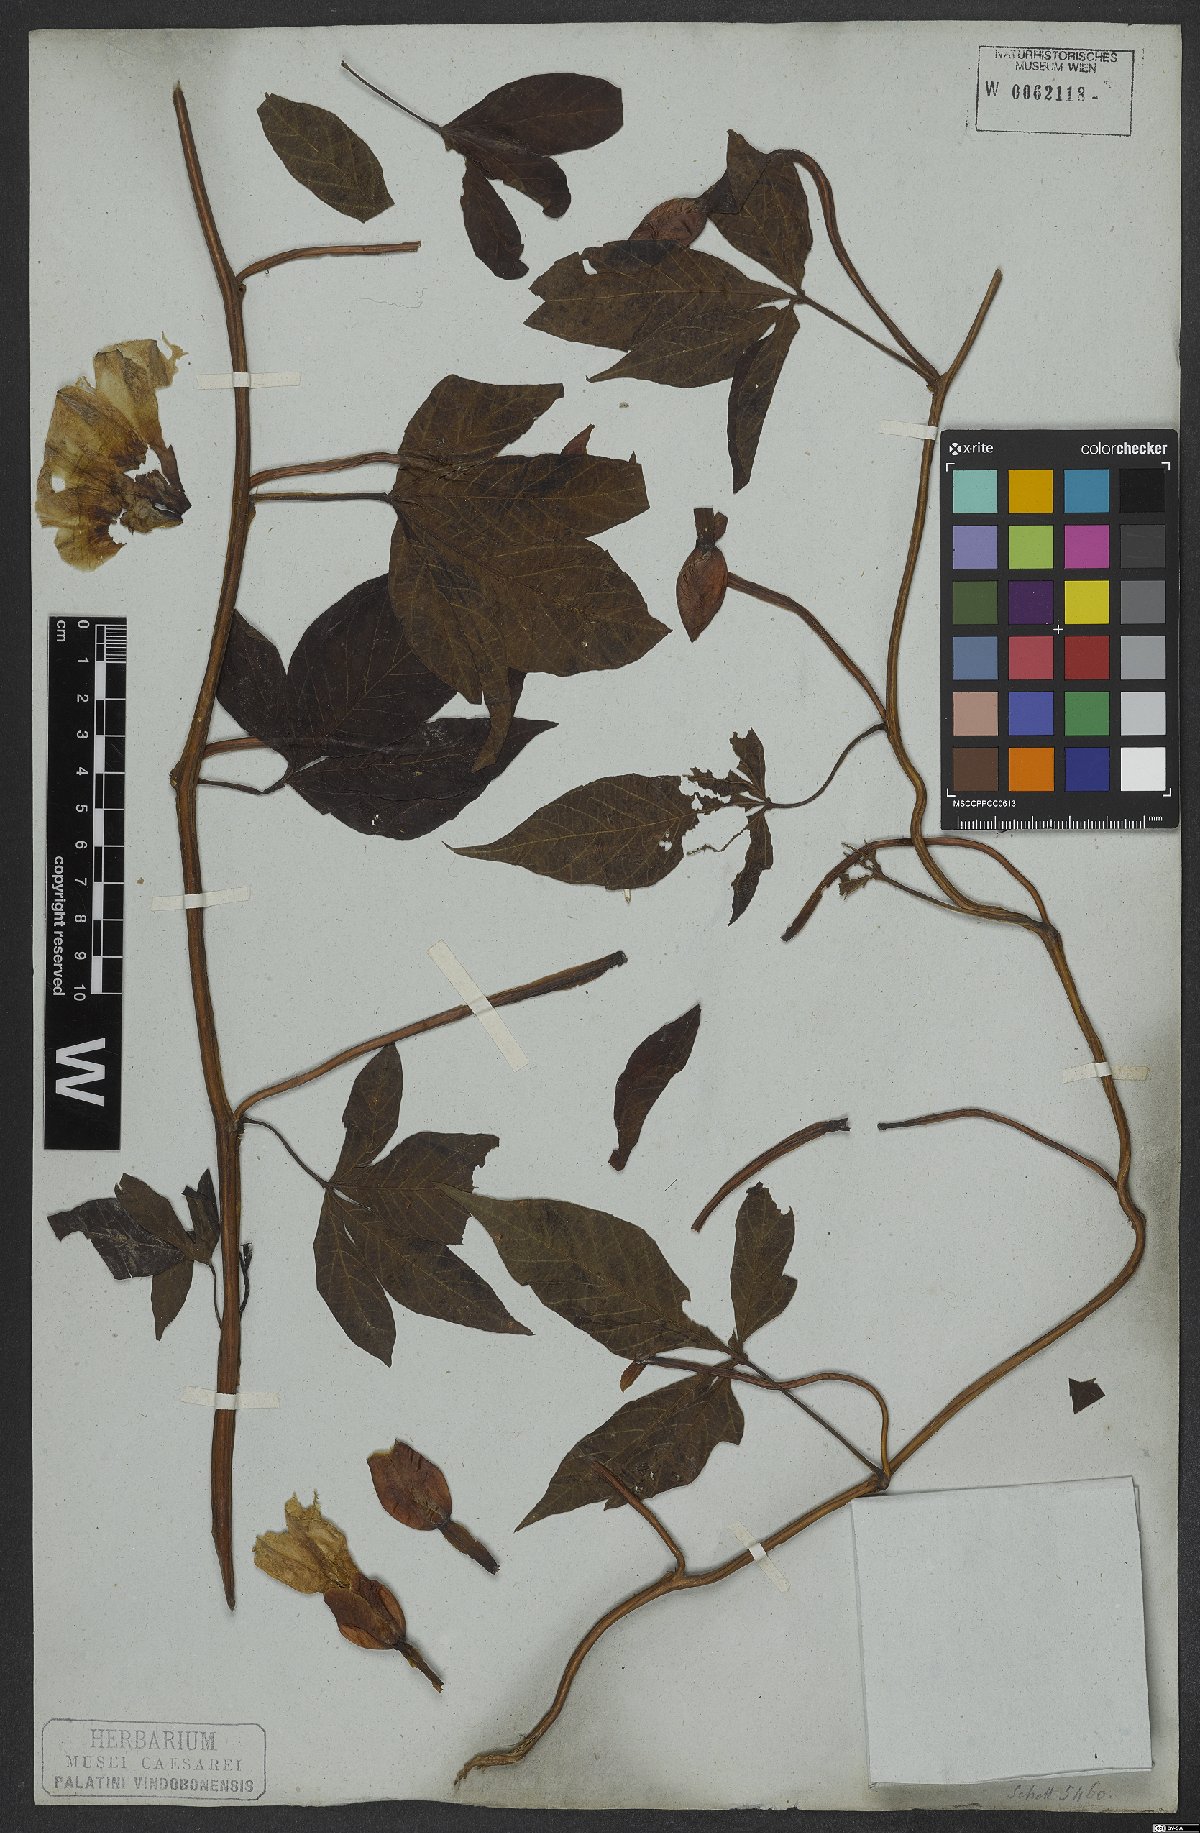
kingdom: Plantae
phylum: Tracheophyta
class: Magnoliopsida
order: Solanales
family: Convolvulaceae
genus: Operculina
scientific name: Operculina macrocarpa
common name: Brazilian jalap
